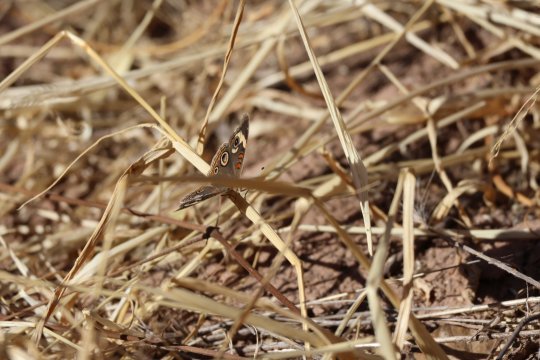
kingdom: Animalia
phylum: Arthropoda
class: Insecta
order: Lepidoptera
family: Nymphalidae
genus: Junonia
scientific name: Junonia coenia
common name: Common Buckeye
